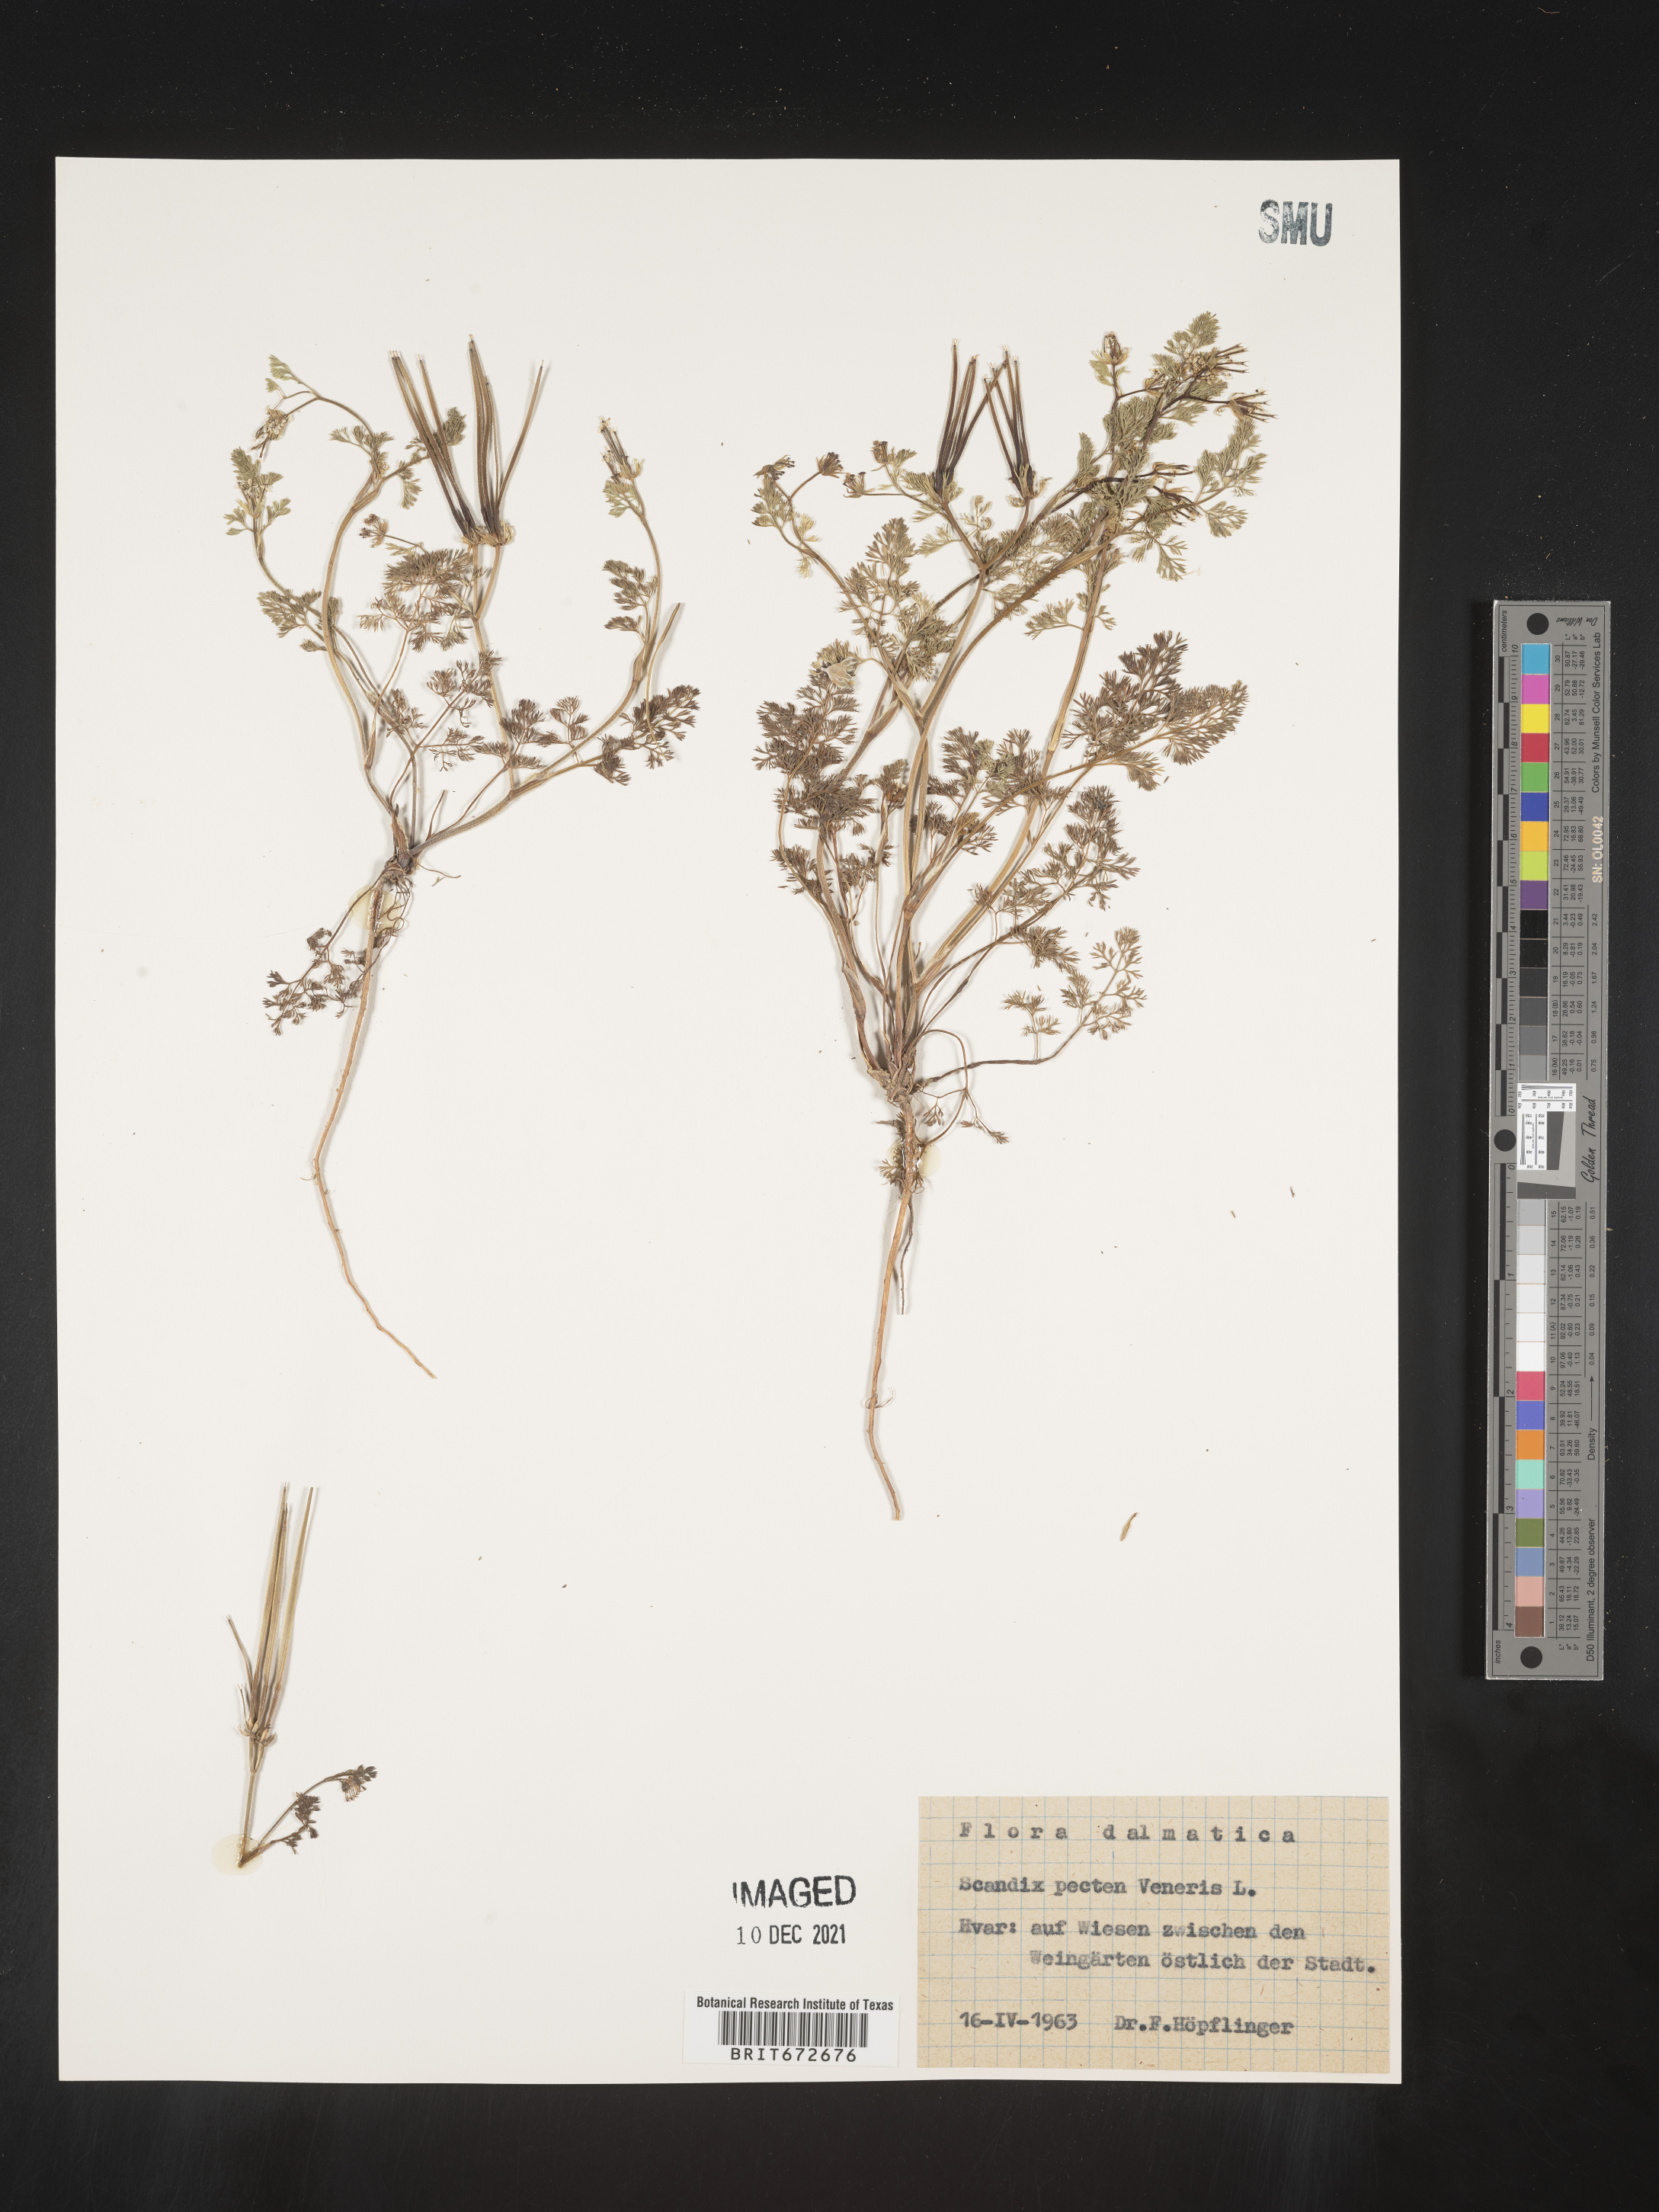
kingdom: Plantae
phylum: Tracheophyta
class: Magnoliopsida
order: Apiales
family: Apiaceae
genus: Scandix
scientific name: Scandix
